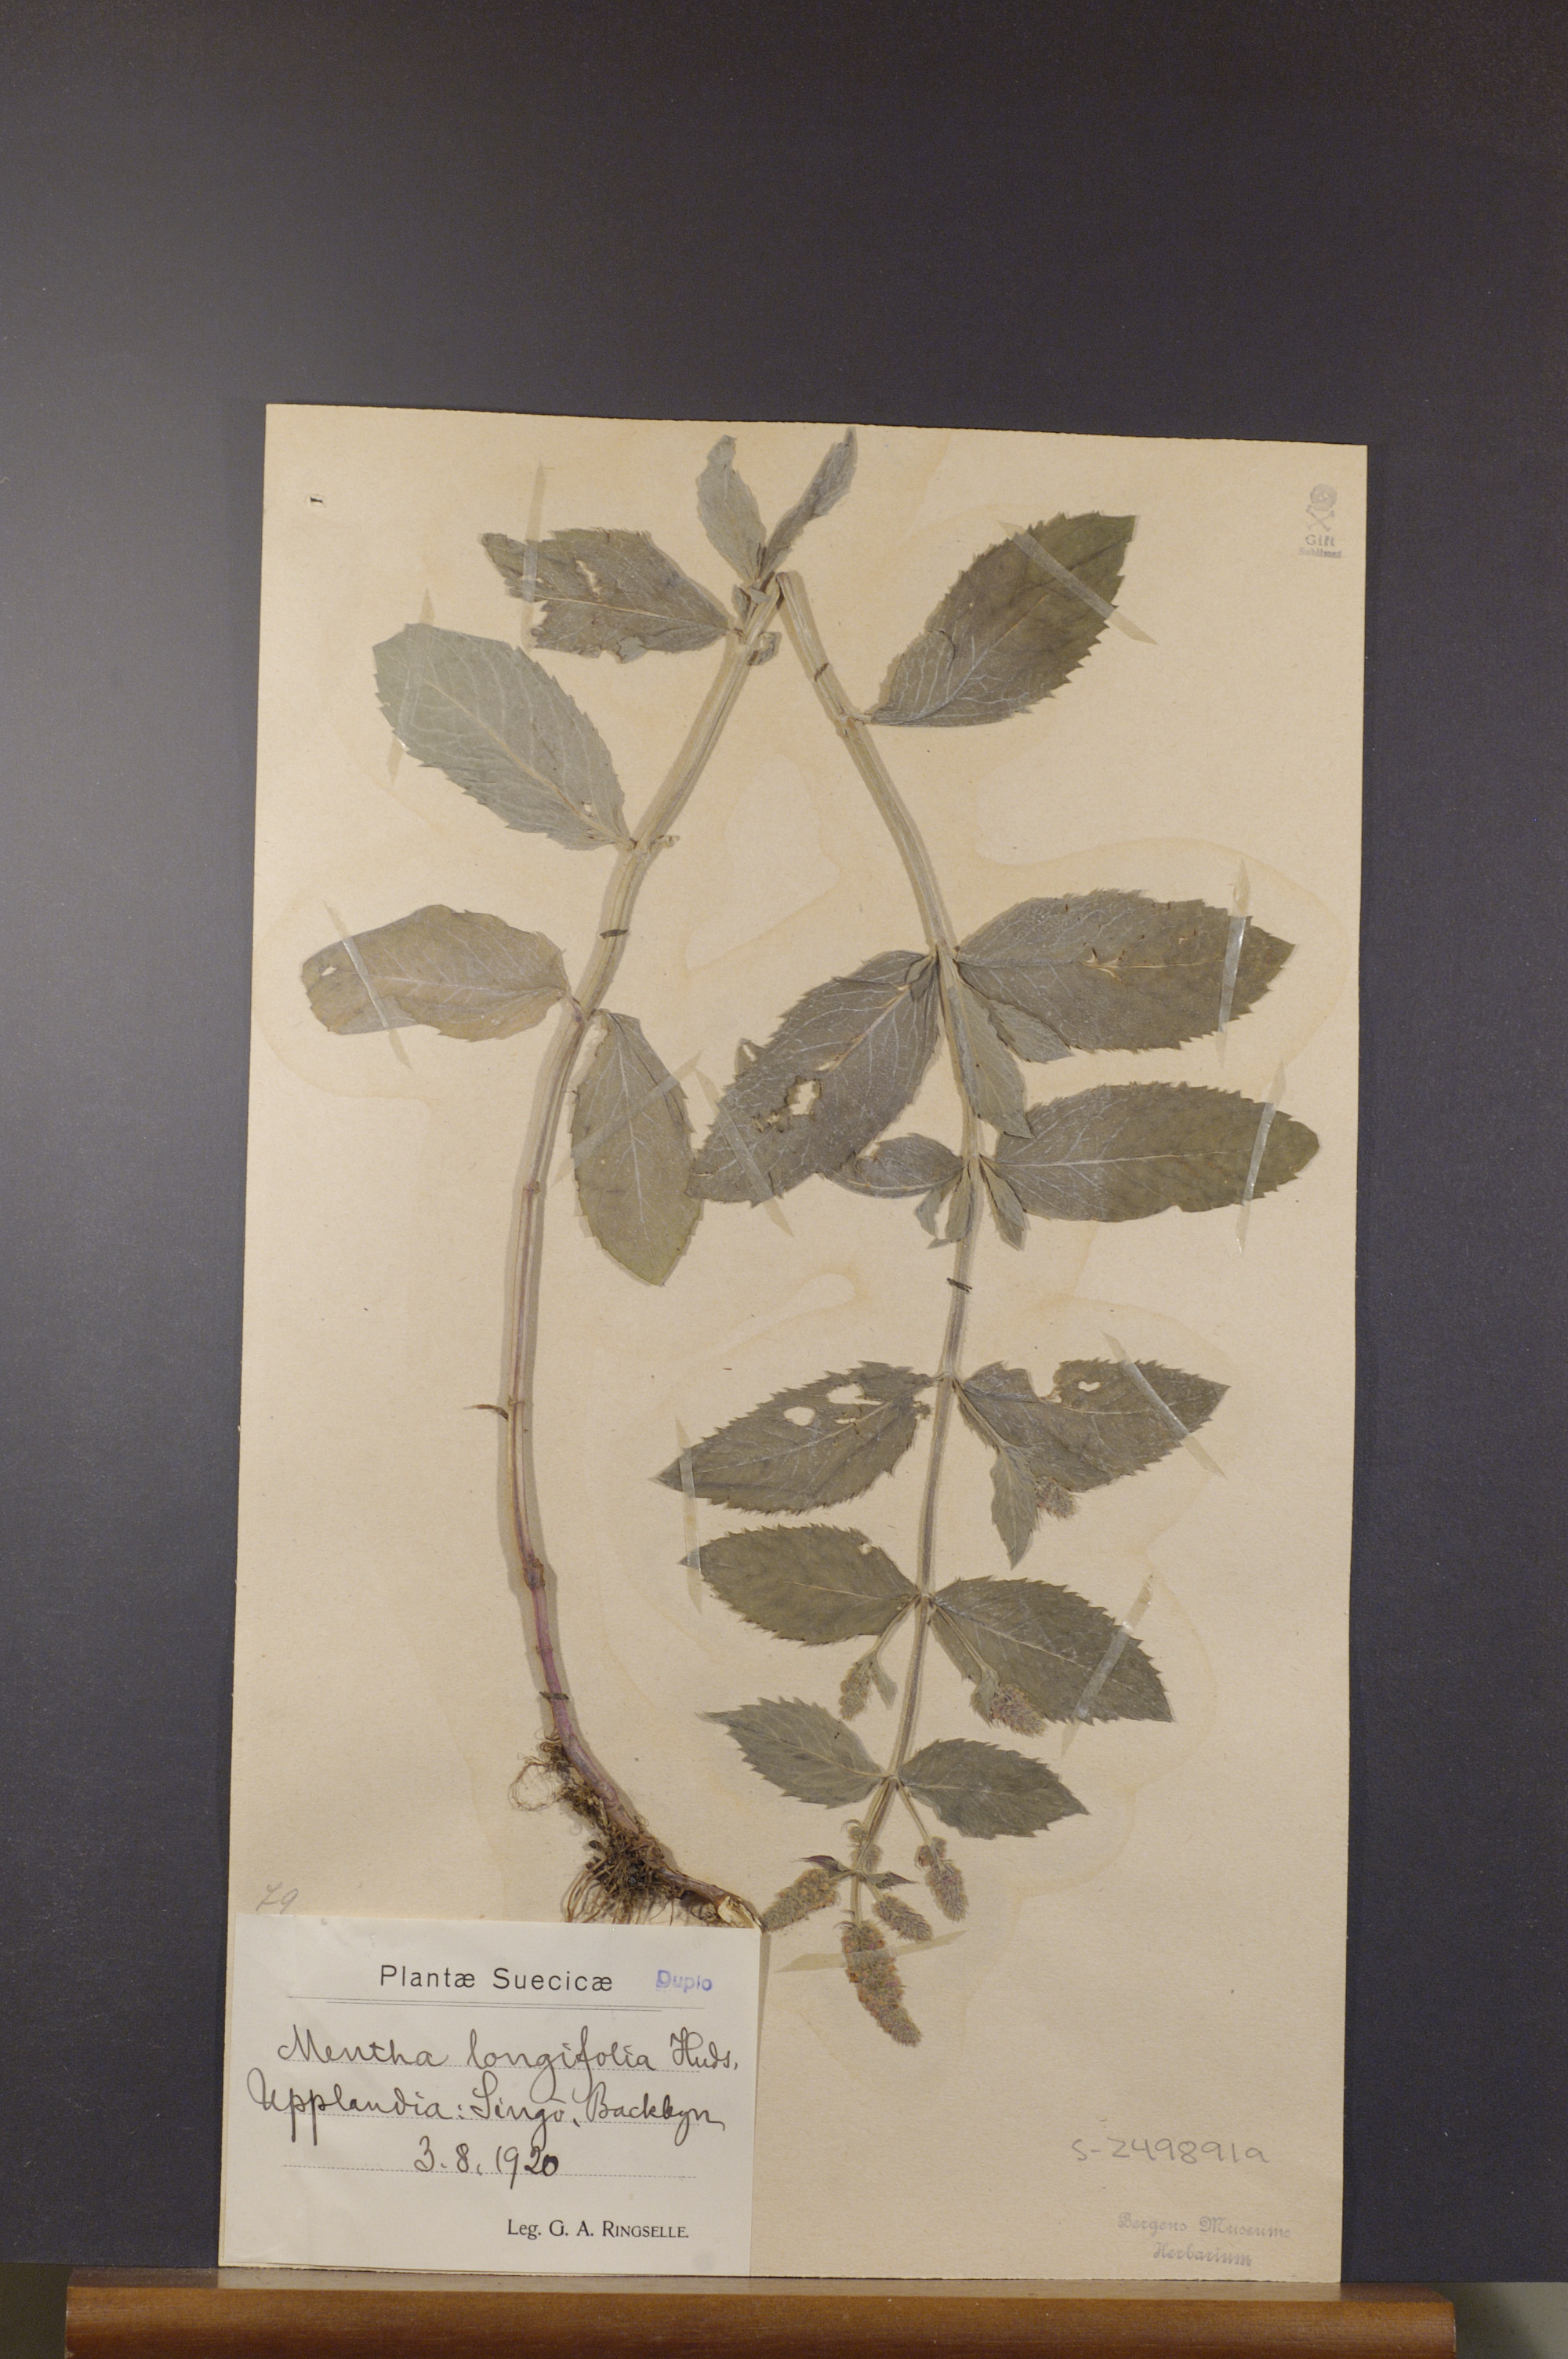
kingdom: Plantae
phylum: Tracheophyta
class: Magnoliopsida
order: Lamiales
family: Lamiaceae
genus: Mentha
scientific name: Mentha longifolia
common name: Horse mint
